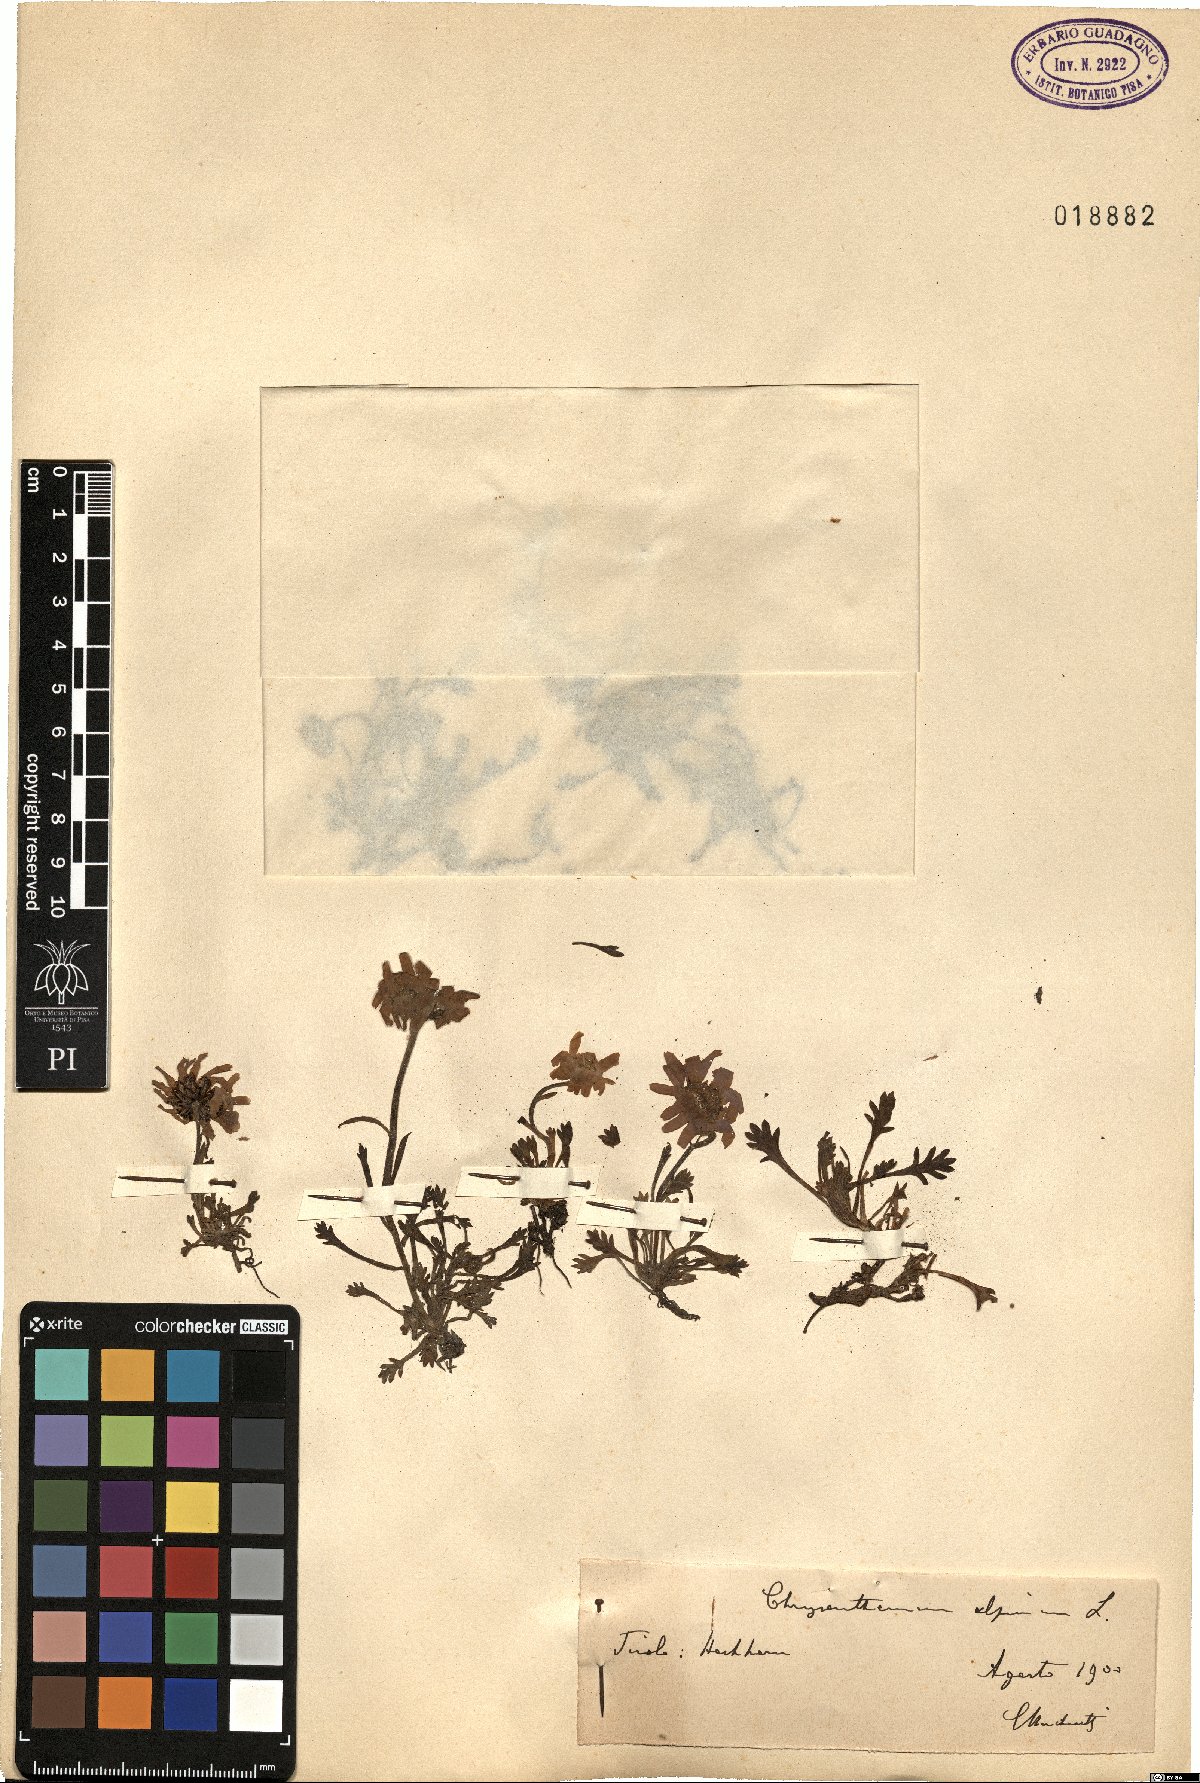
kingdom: Plantae
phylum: Tracheophyta
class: Magnoliopsida
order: Asterales
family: Asteraceae
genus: Leucanthemopsis
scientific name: Leucanthemopsis alpina
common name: Alpine moon daisy
